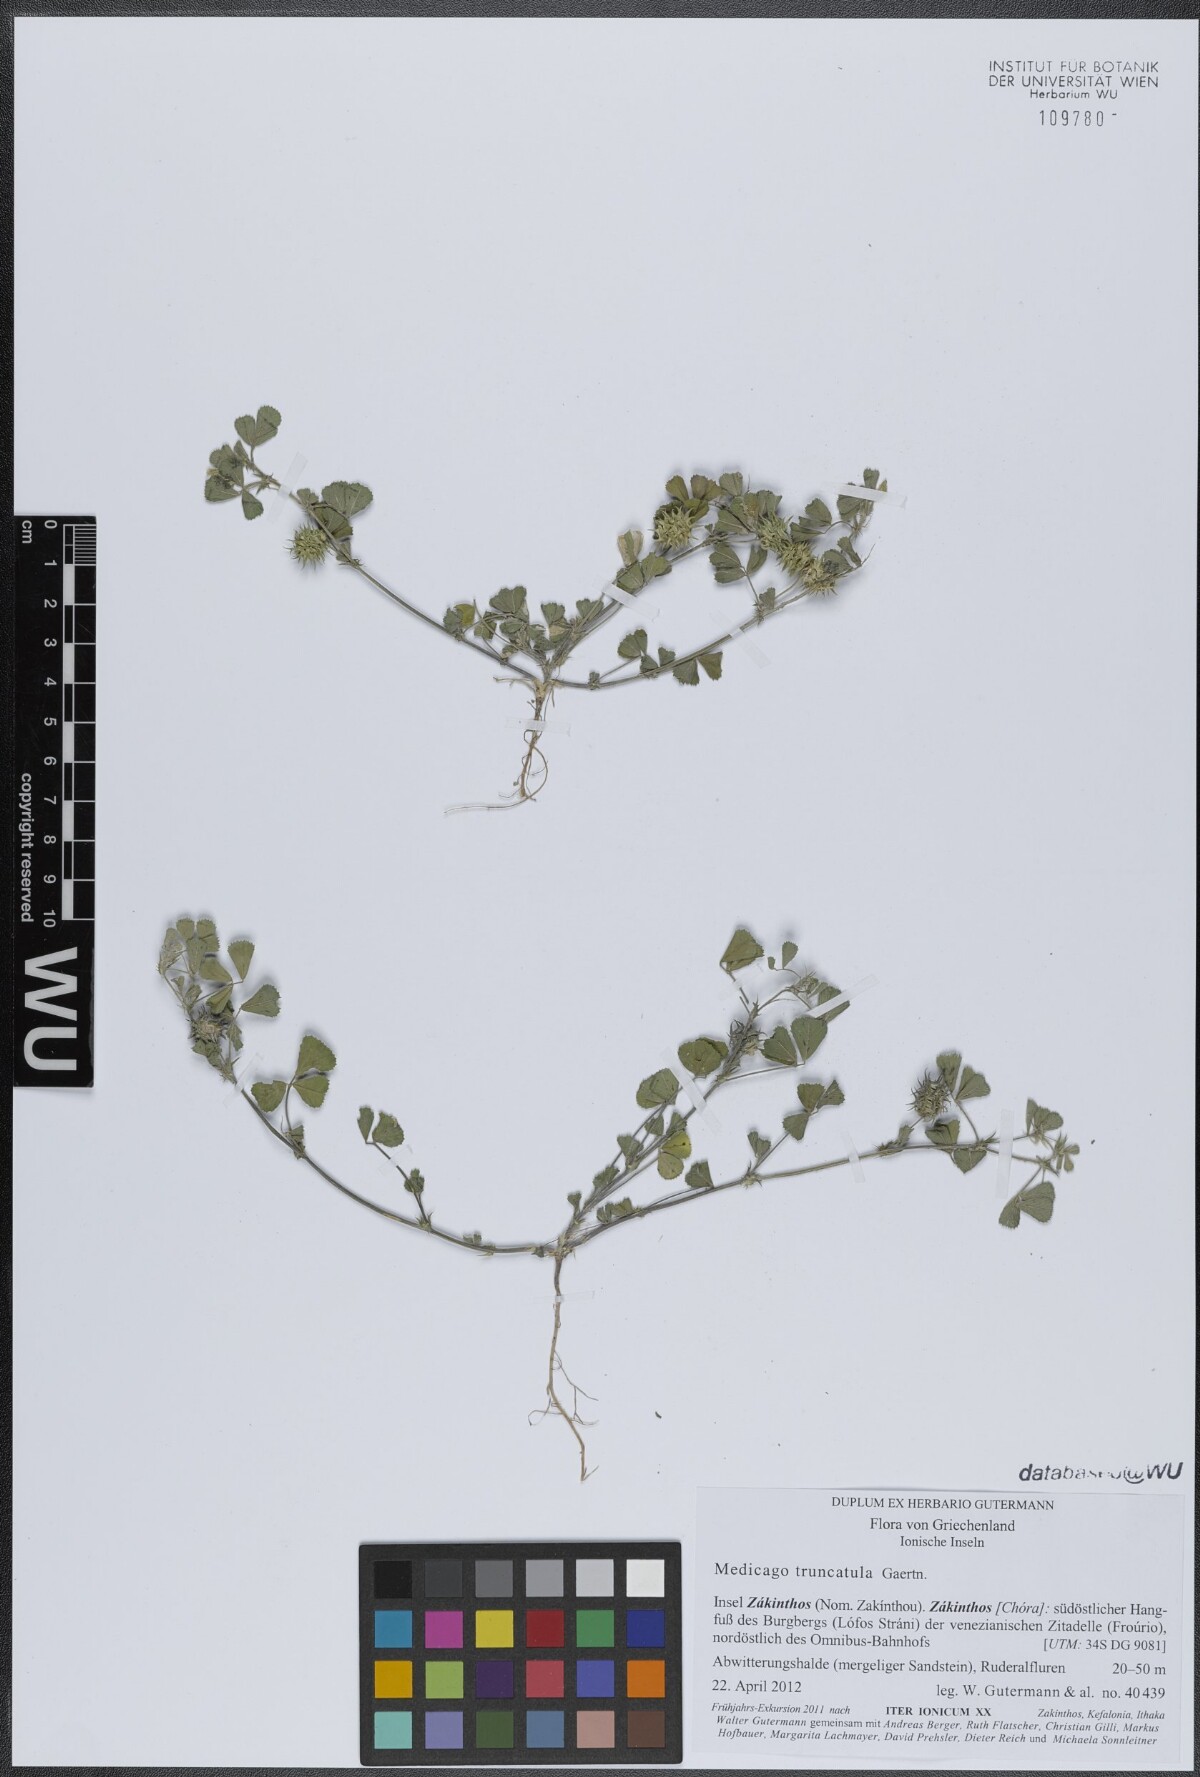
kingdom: Plantae
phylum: Tracheophyta
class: Magnoliopsida
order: Fabales
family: Fabaceae
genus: Medicago
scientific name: Medicago truncatula
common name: Strong-spined medick
